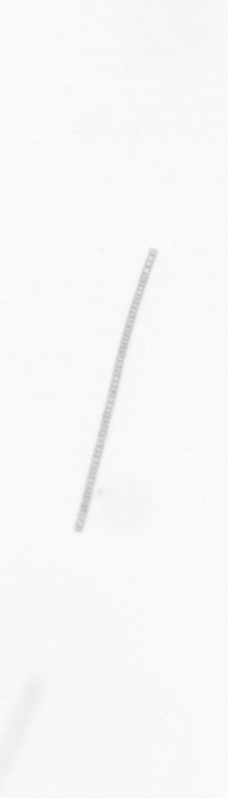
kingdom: Chromista
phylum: Ochrophyta
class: Bacillariophyceae
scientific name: Bacillariophyceae
